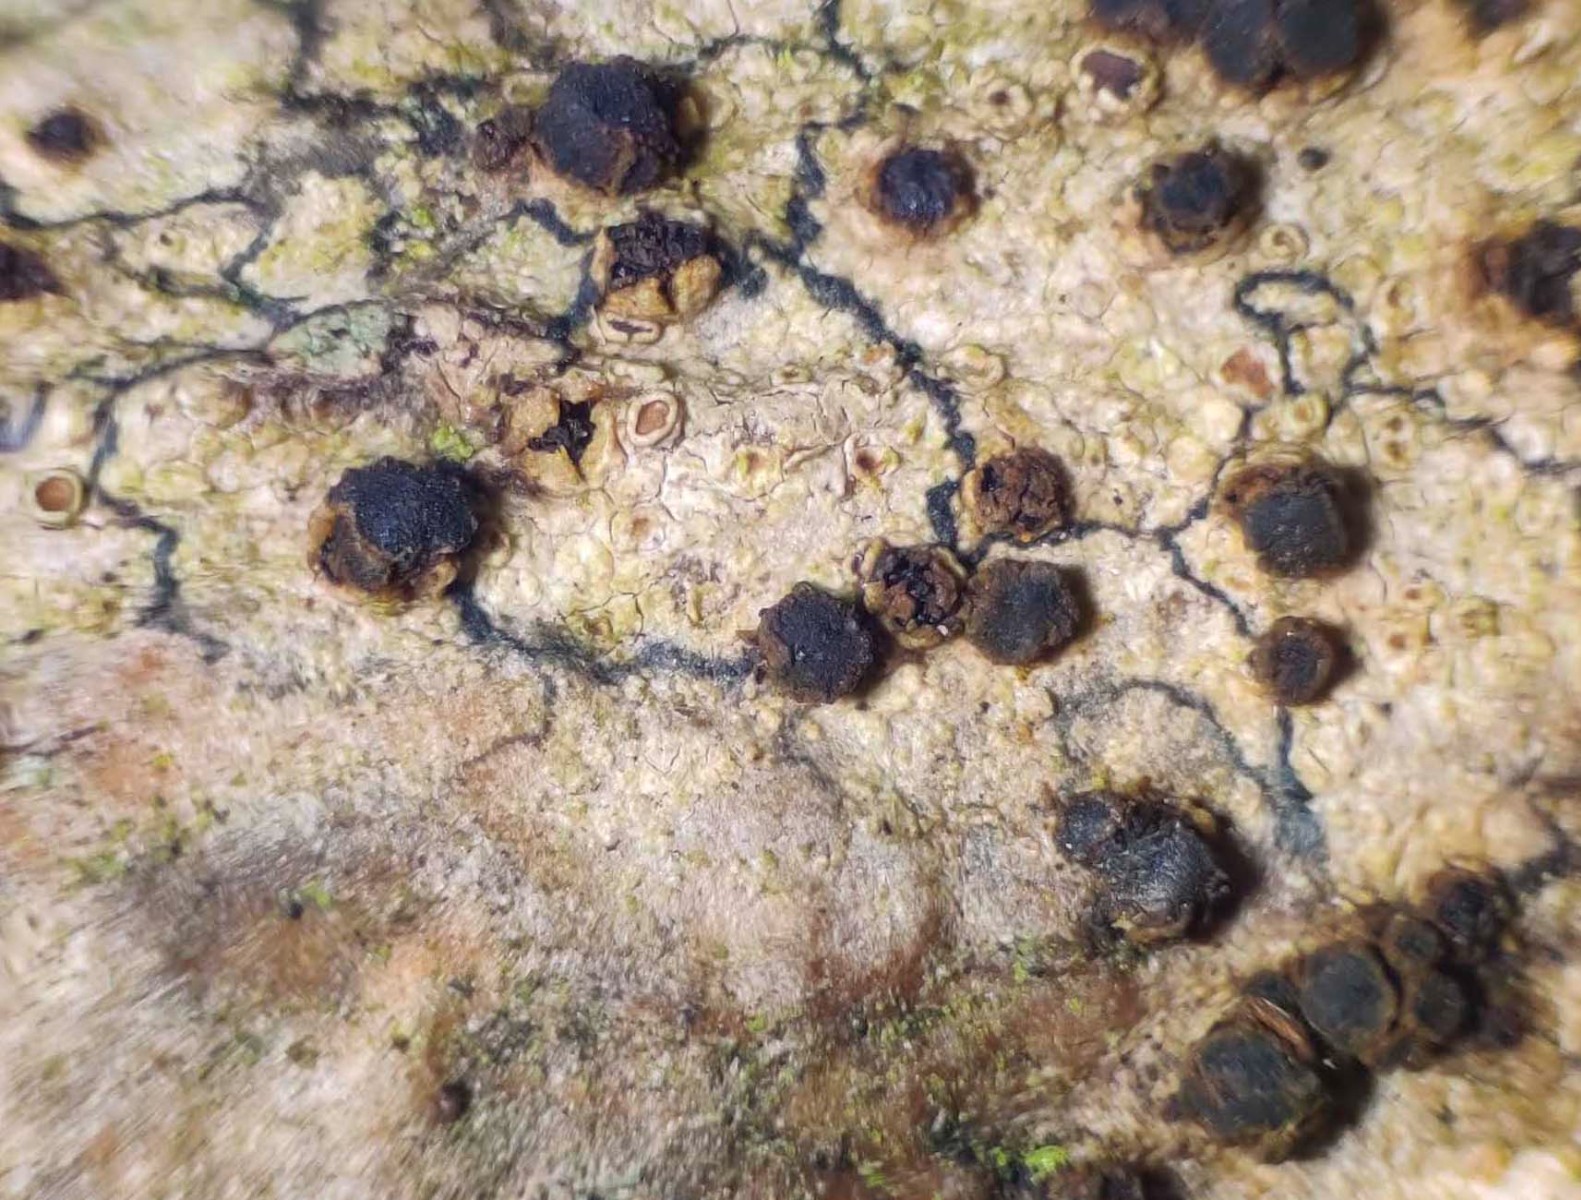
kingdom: Fungi
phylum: Ascomycota
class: Leotiomycetes
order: Helotiales
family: Dermateaceae
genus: Dermea
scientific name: Dermea tulasnei
